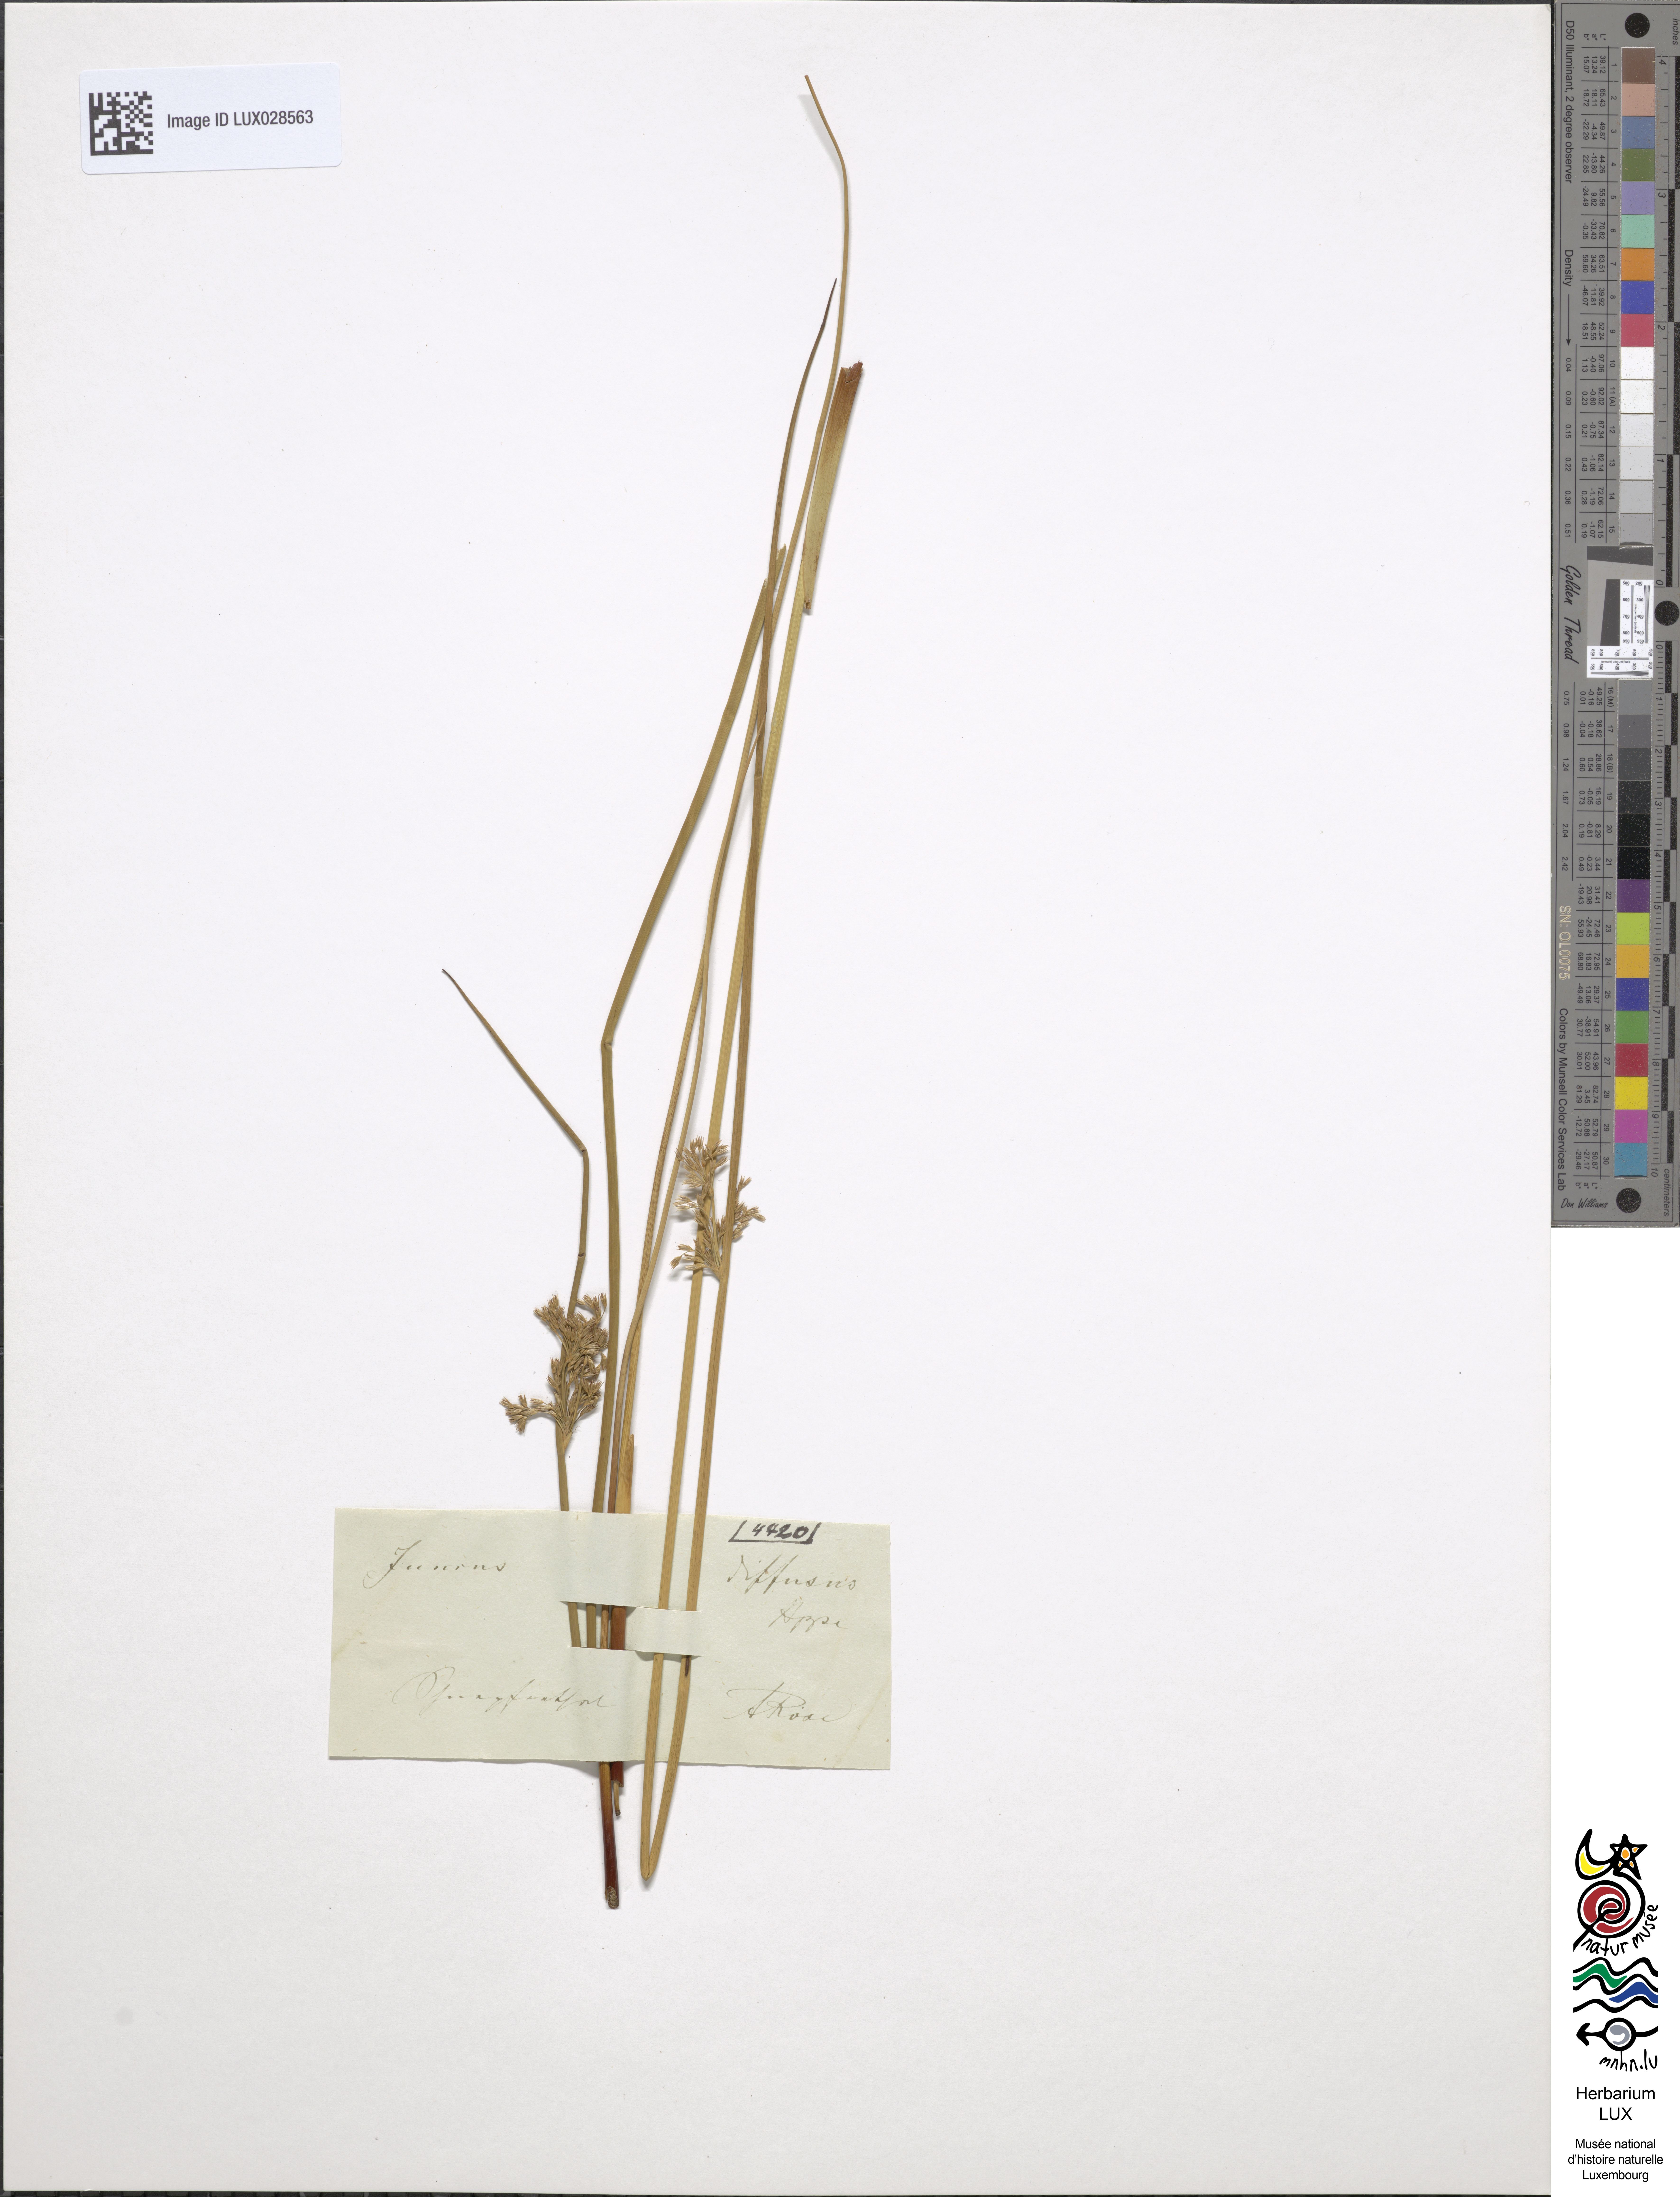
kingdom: Plantae
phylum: Tracheophyta
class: Liliopsida
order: Poales
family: Juncaceae
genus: Juncus
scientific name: Juncus diffusus
